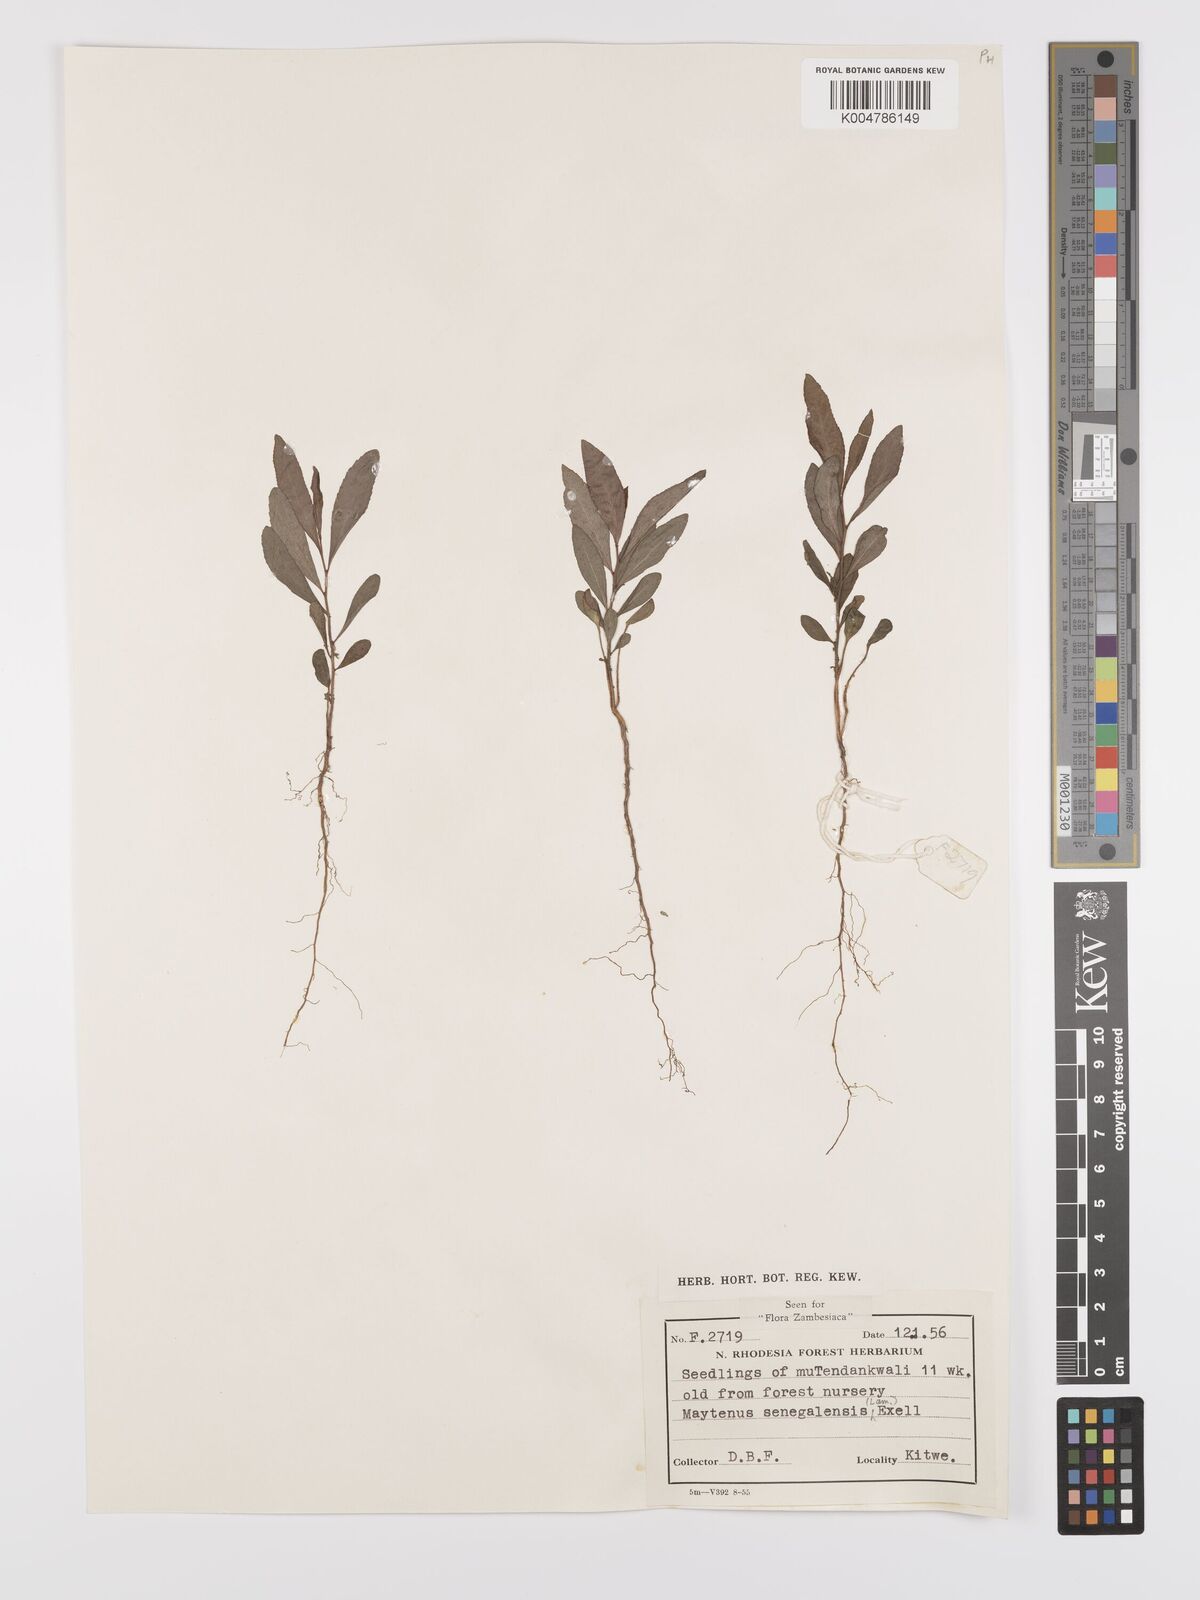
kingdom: Plantae
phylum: Tracheophyta
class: Magnoliopsida
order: Celastrales
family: Celastraceae
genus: Gymnosporia
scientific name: Gymnosporia senegalensis
